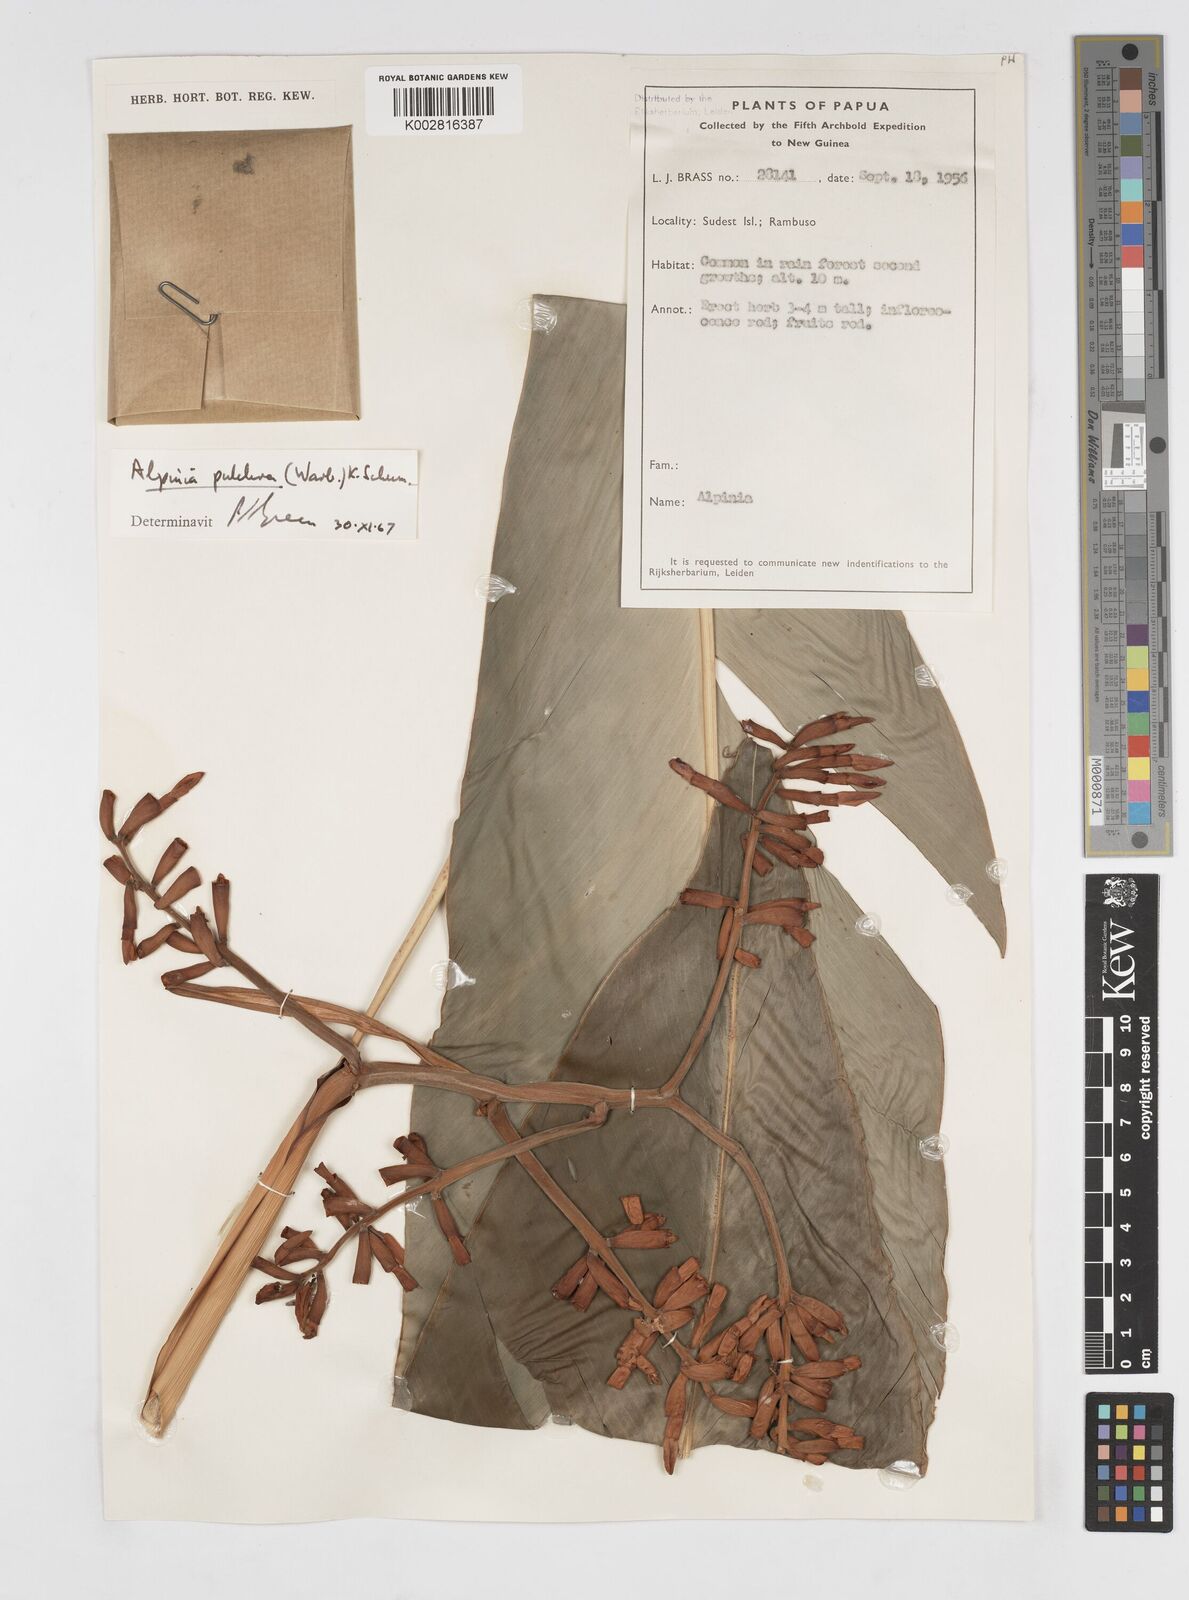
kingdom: Plantae
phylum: Tracheophyta
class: Liliopsida
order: Zingiberales
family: Zingiberaceae
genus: Alpinia
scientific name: Alpinia pulchra
